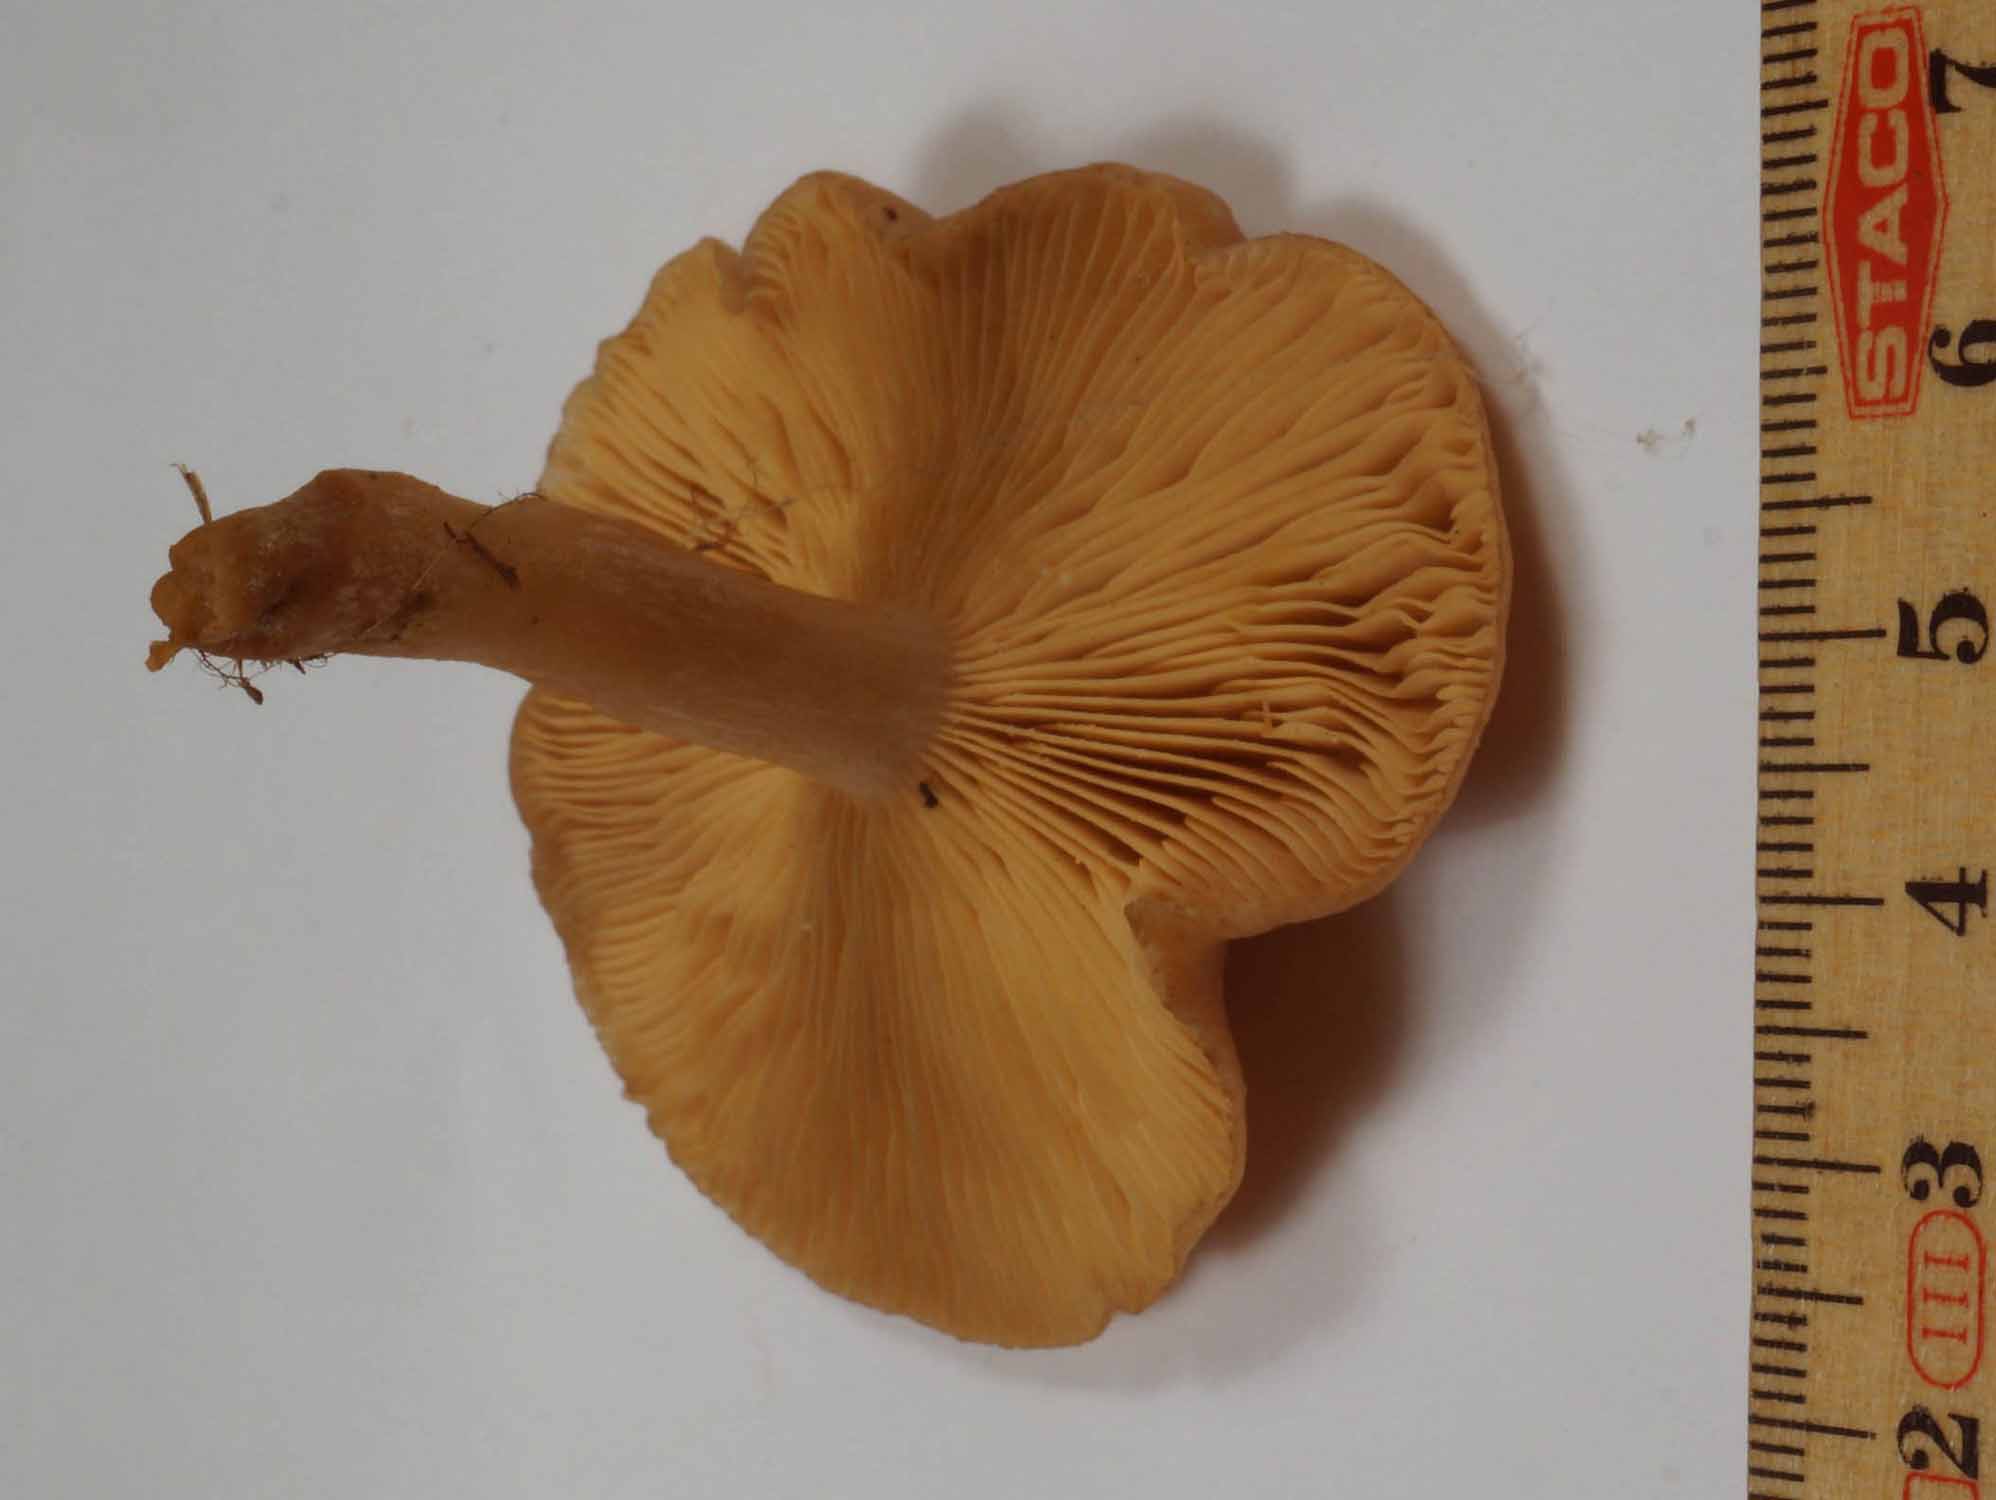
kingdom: Fungi
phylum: Basidiomycota
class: Agaricomycetes
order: Russulales
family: Russulaceae
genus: Lactarius
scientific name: Lactarius glyciosmus
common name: kokos-mælkehat
